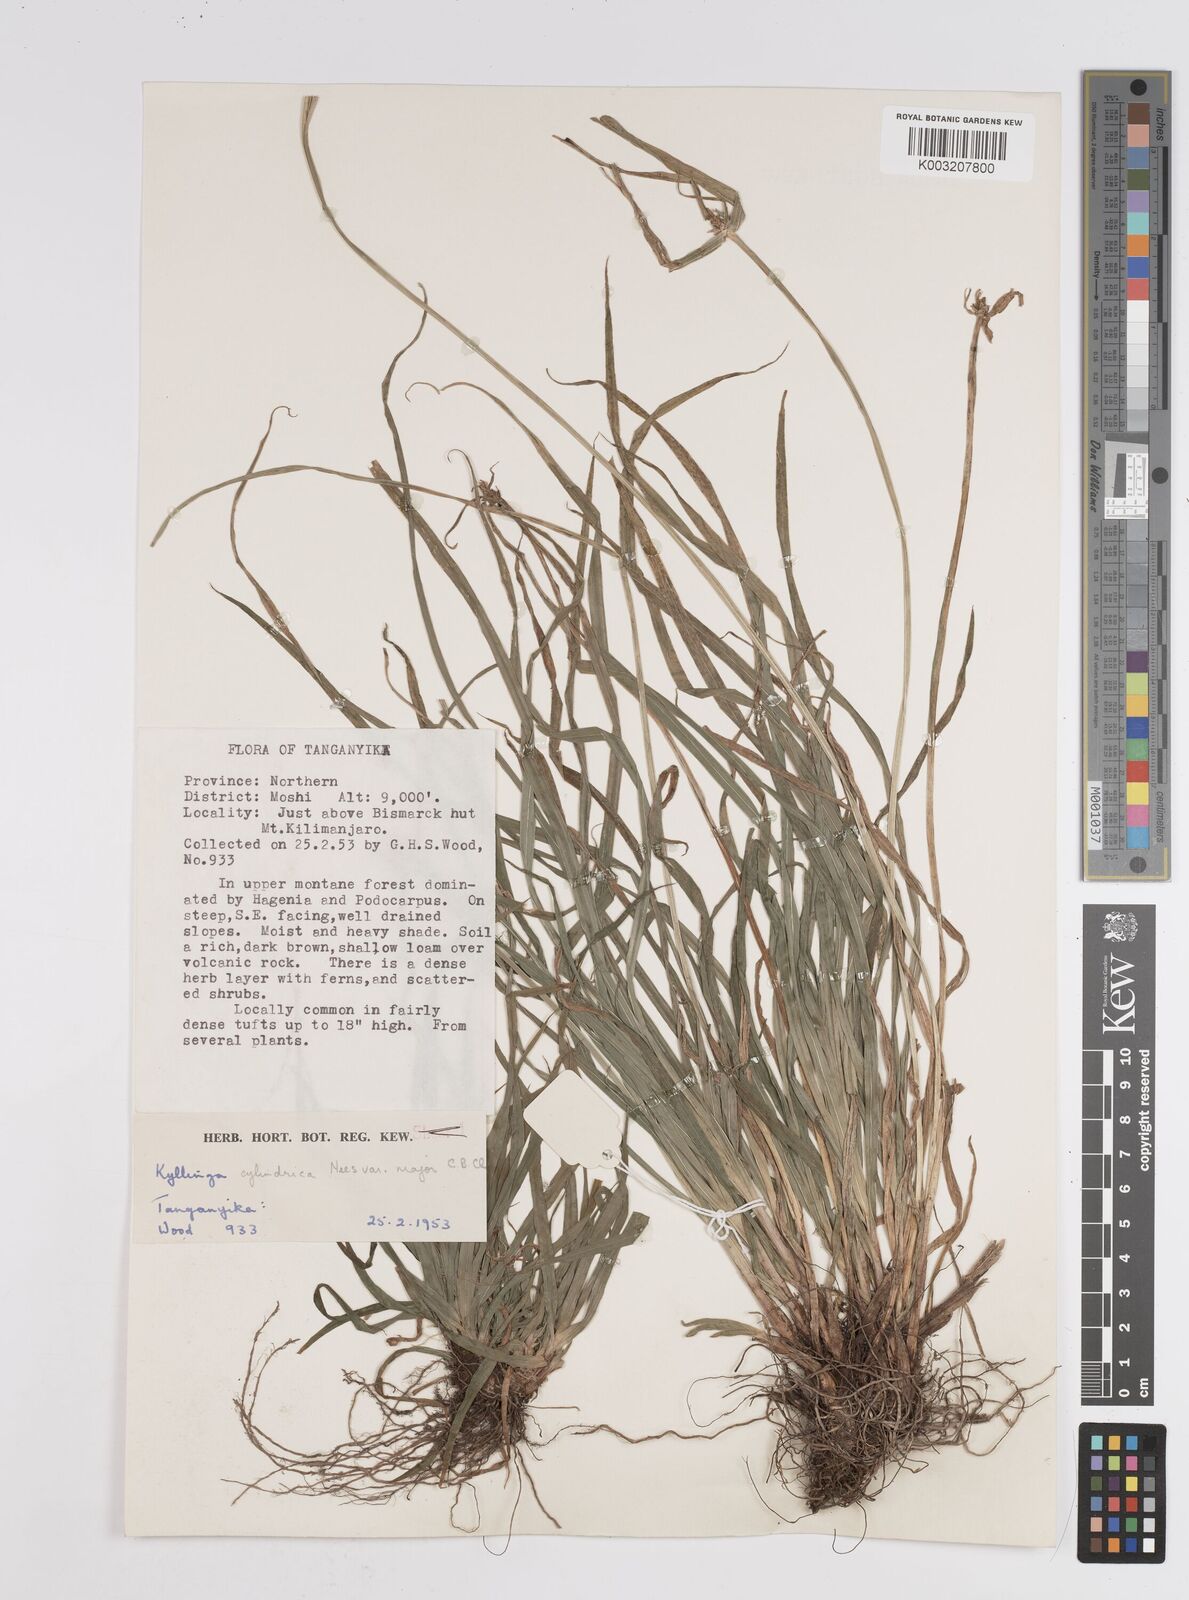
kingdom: Plantae
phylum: Tracheophyta
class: Liliopsida
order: Poales
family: Cyperaceae
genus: Cyperus
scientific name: Cyperus
